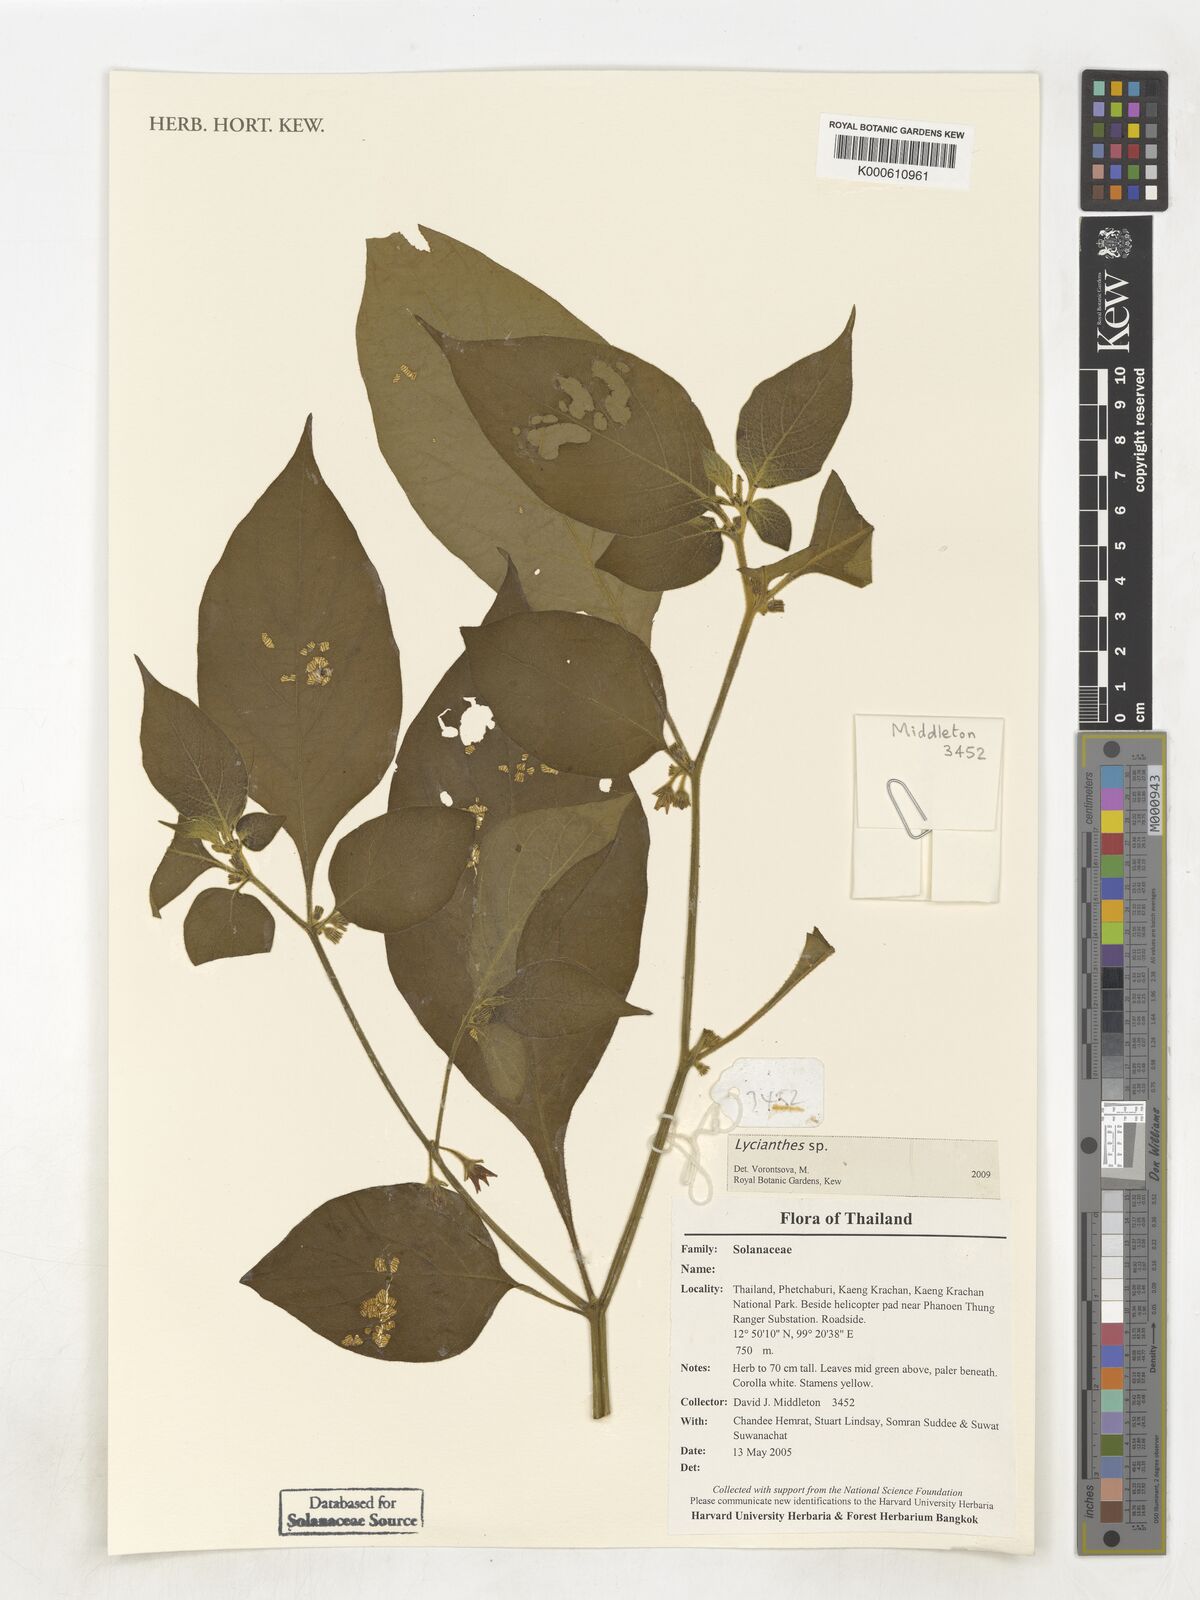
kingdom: Plantae
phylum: Tracheophyta
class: Magnoliopsida
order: Solanales
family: Solanaceae
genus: Lycianthes
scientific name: Lycianthes
